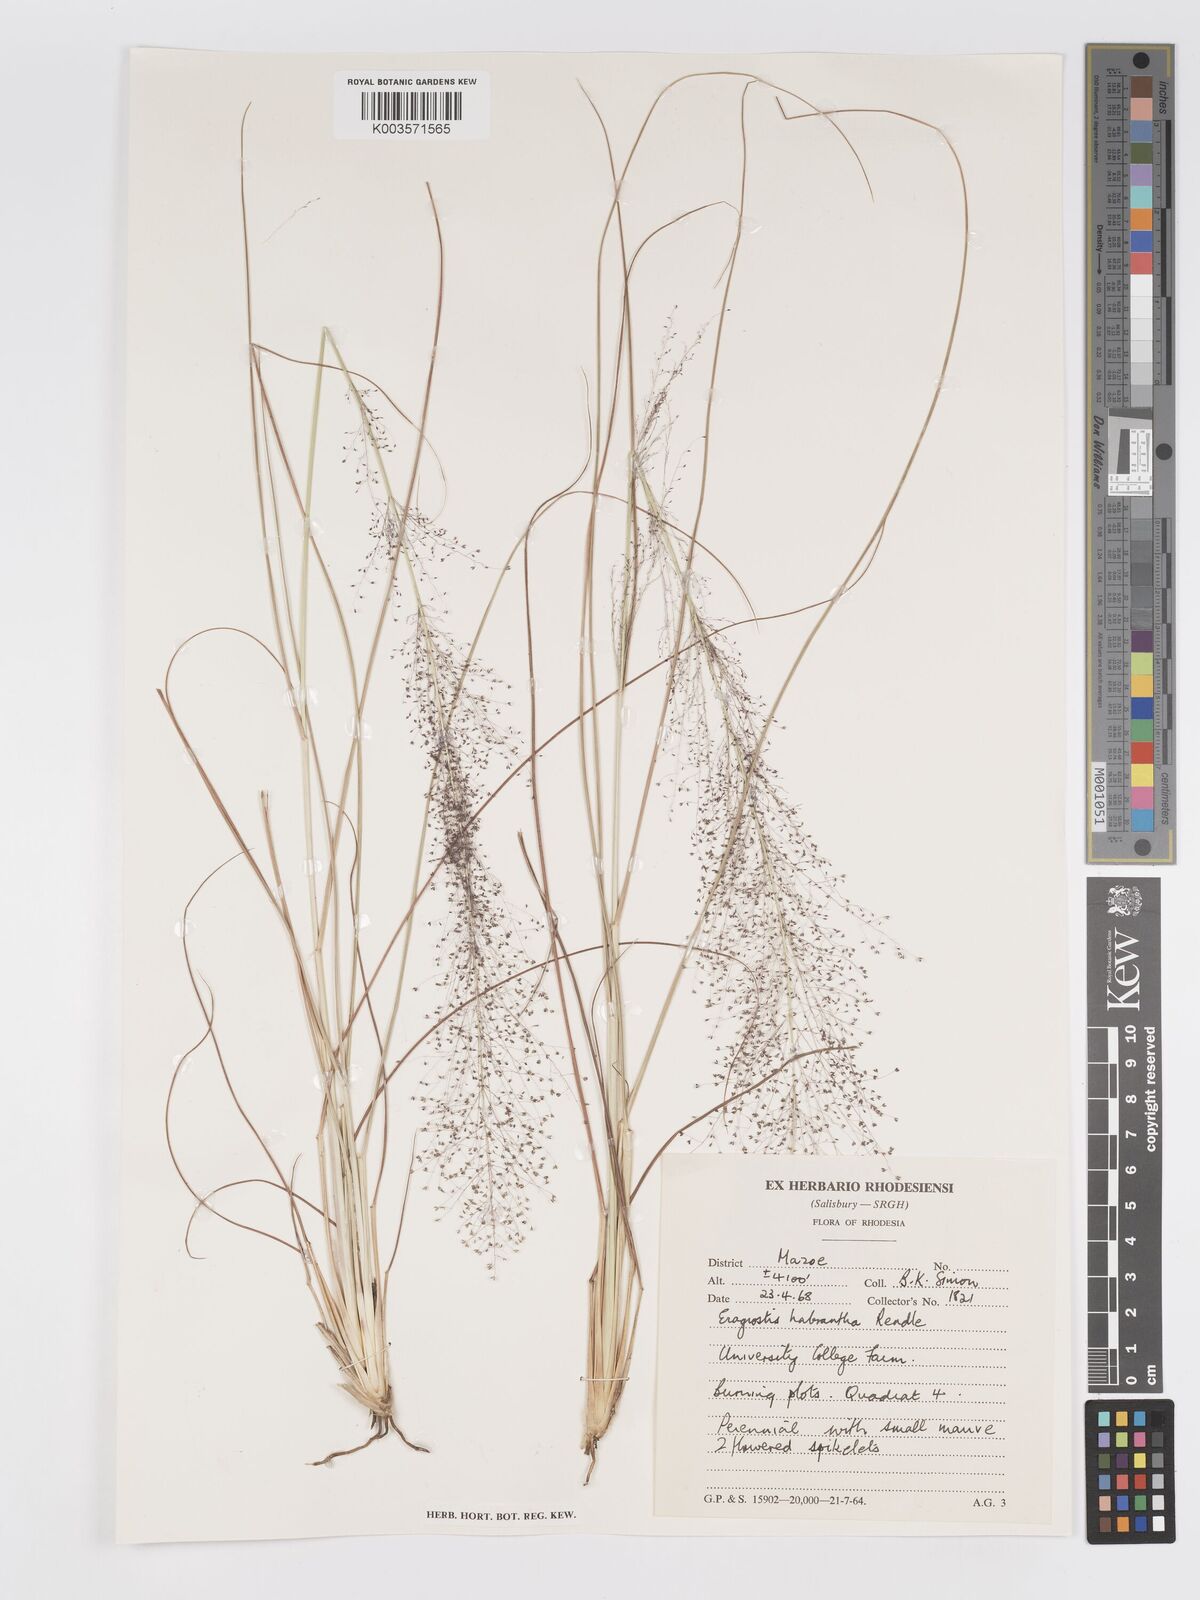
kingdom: Plantae
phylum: Tracheophyta
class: Liliopsida
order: Poales
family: Poaceae
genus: Eragrostis
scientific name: Eragrostis habrantha
